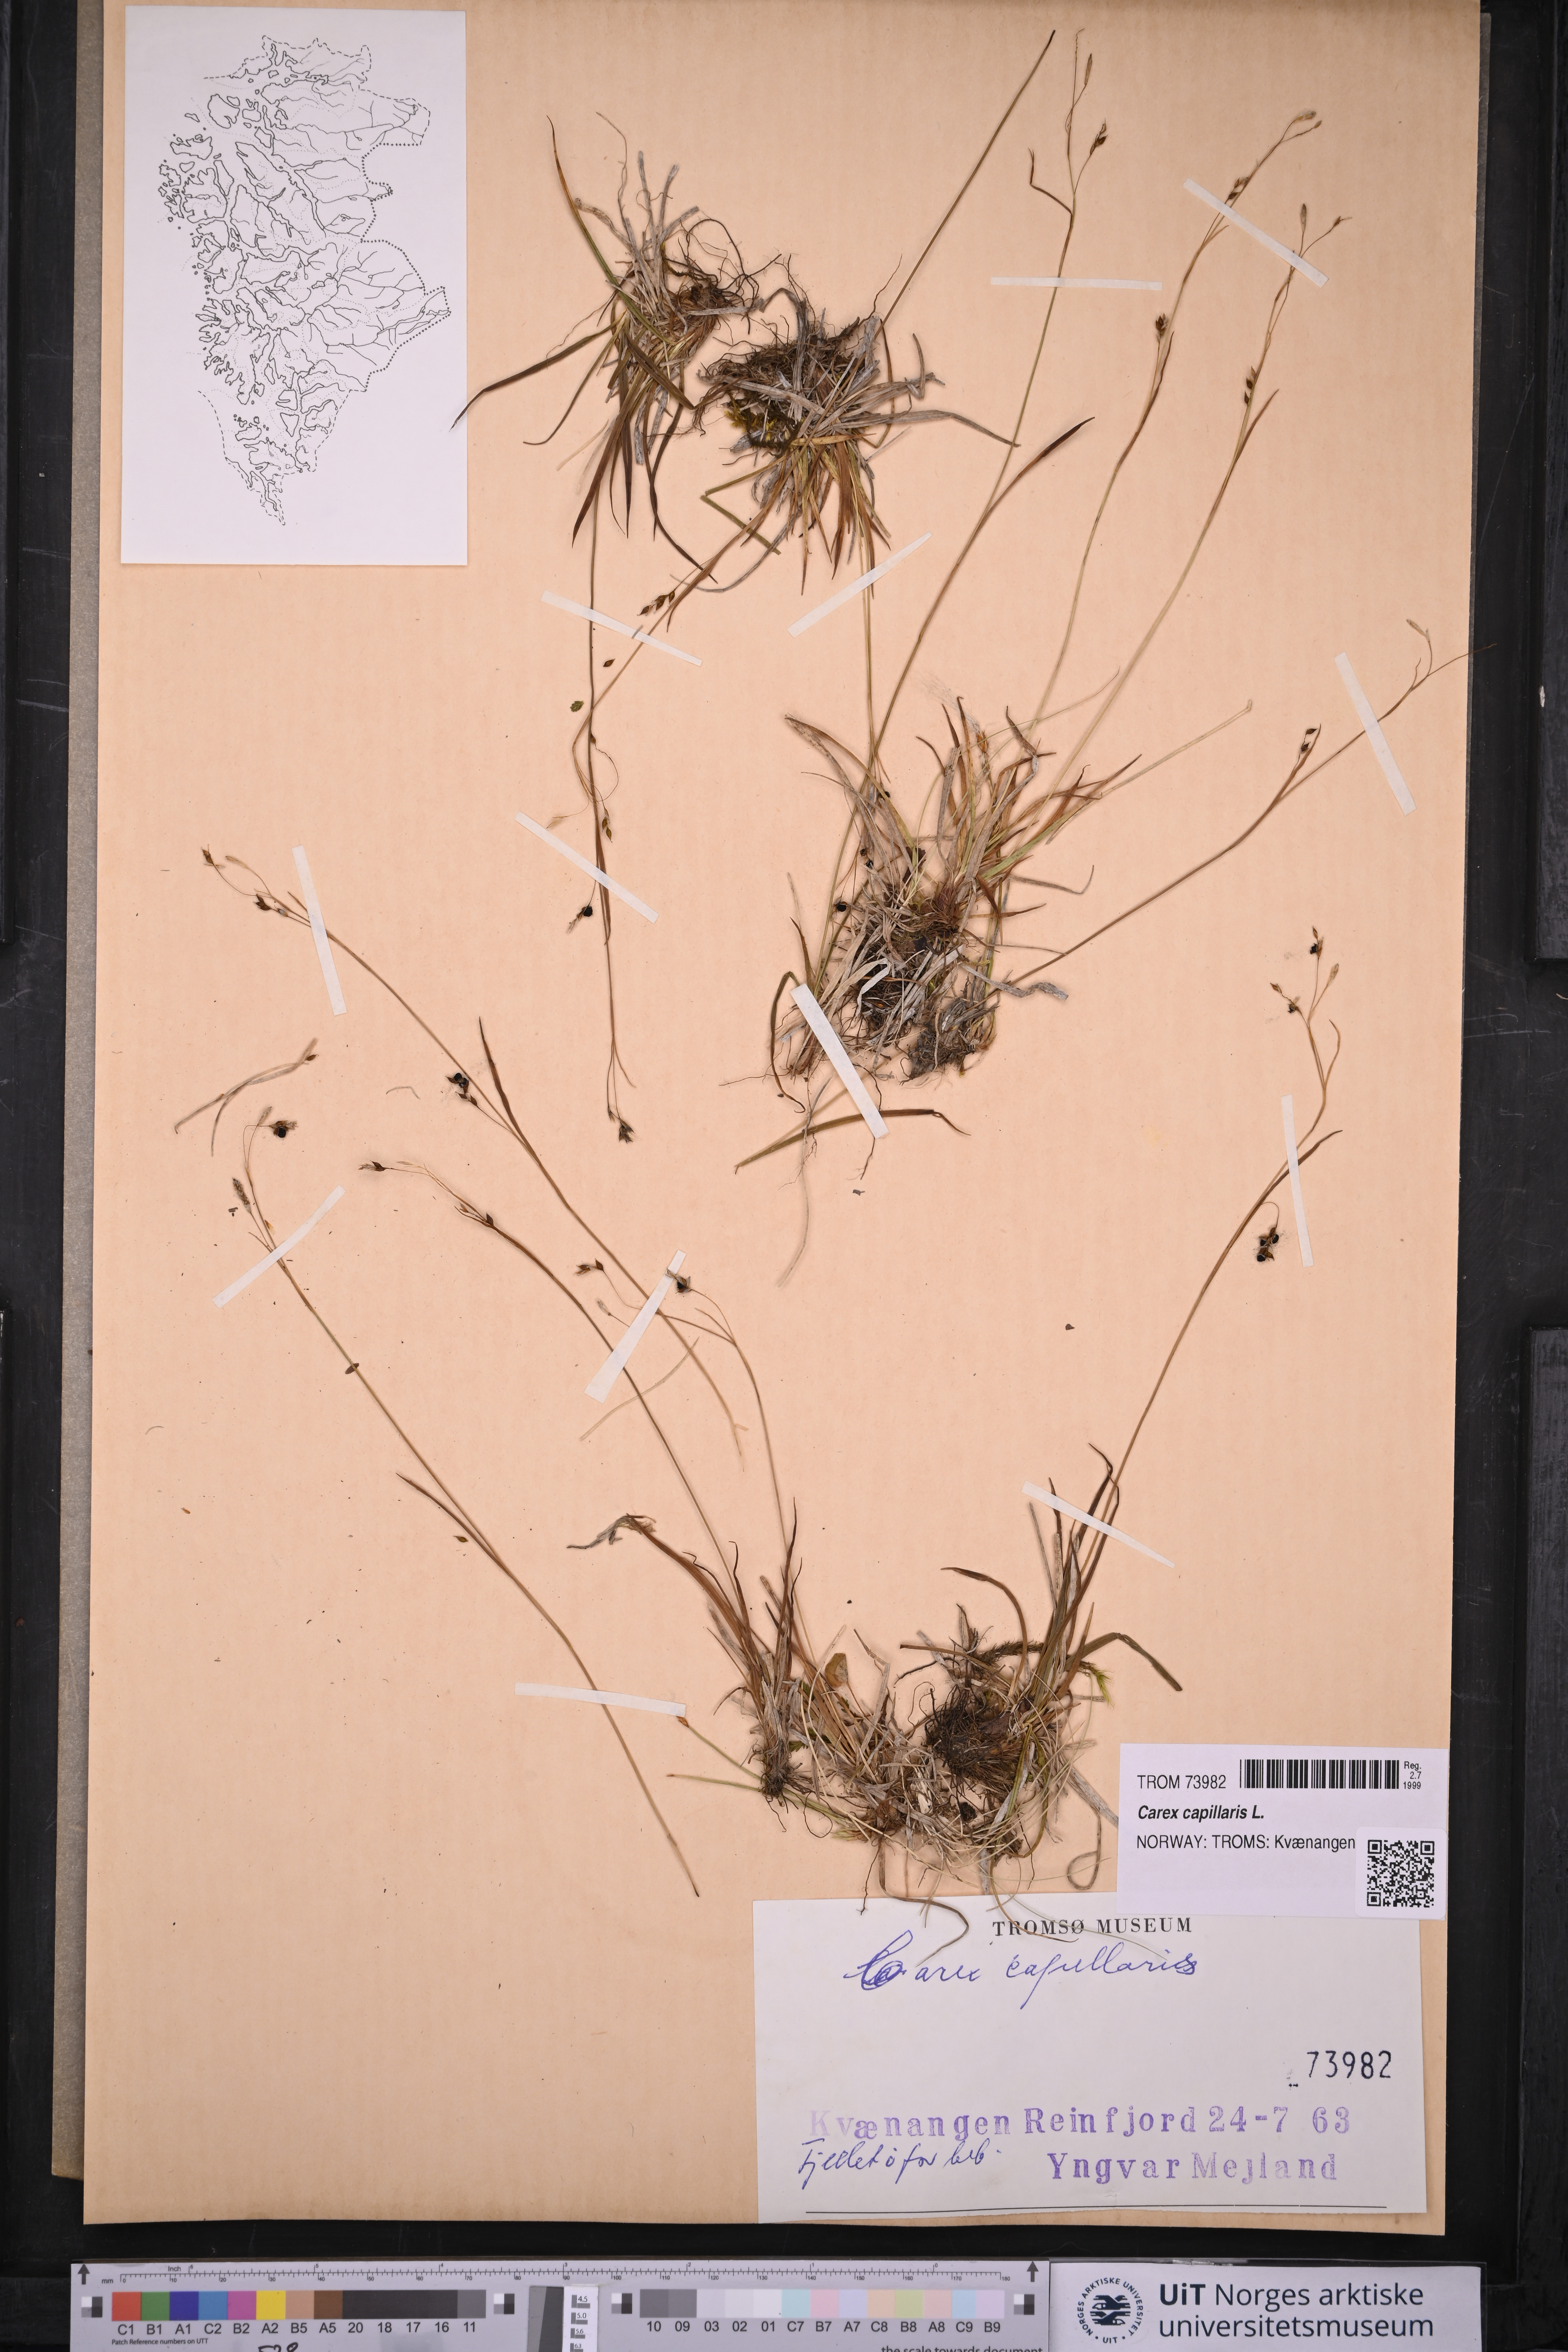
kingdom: Plantae
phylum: Tracheophyta
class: Liliopsida
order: Poales
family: Cyperaceae
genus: Carex
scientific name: Carex capillaris
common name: Hair sedge
